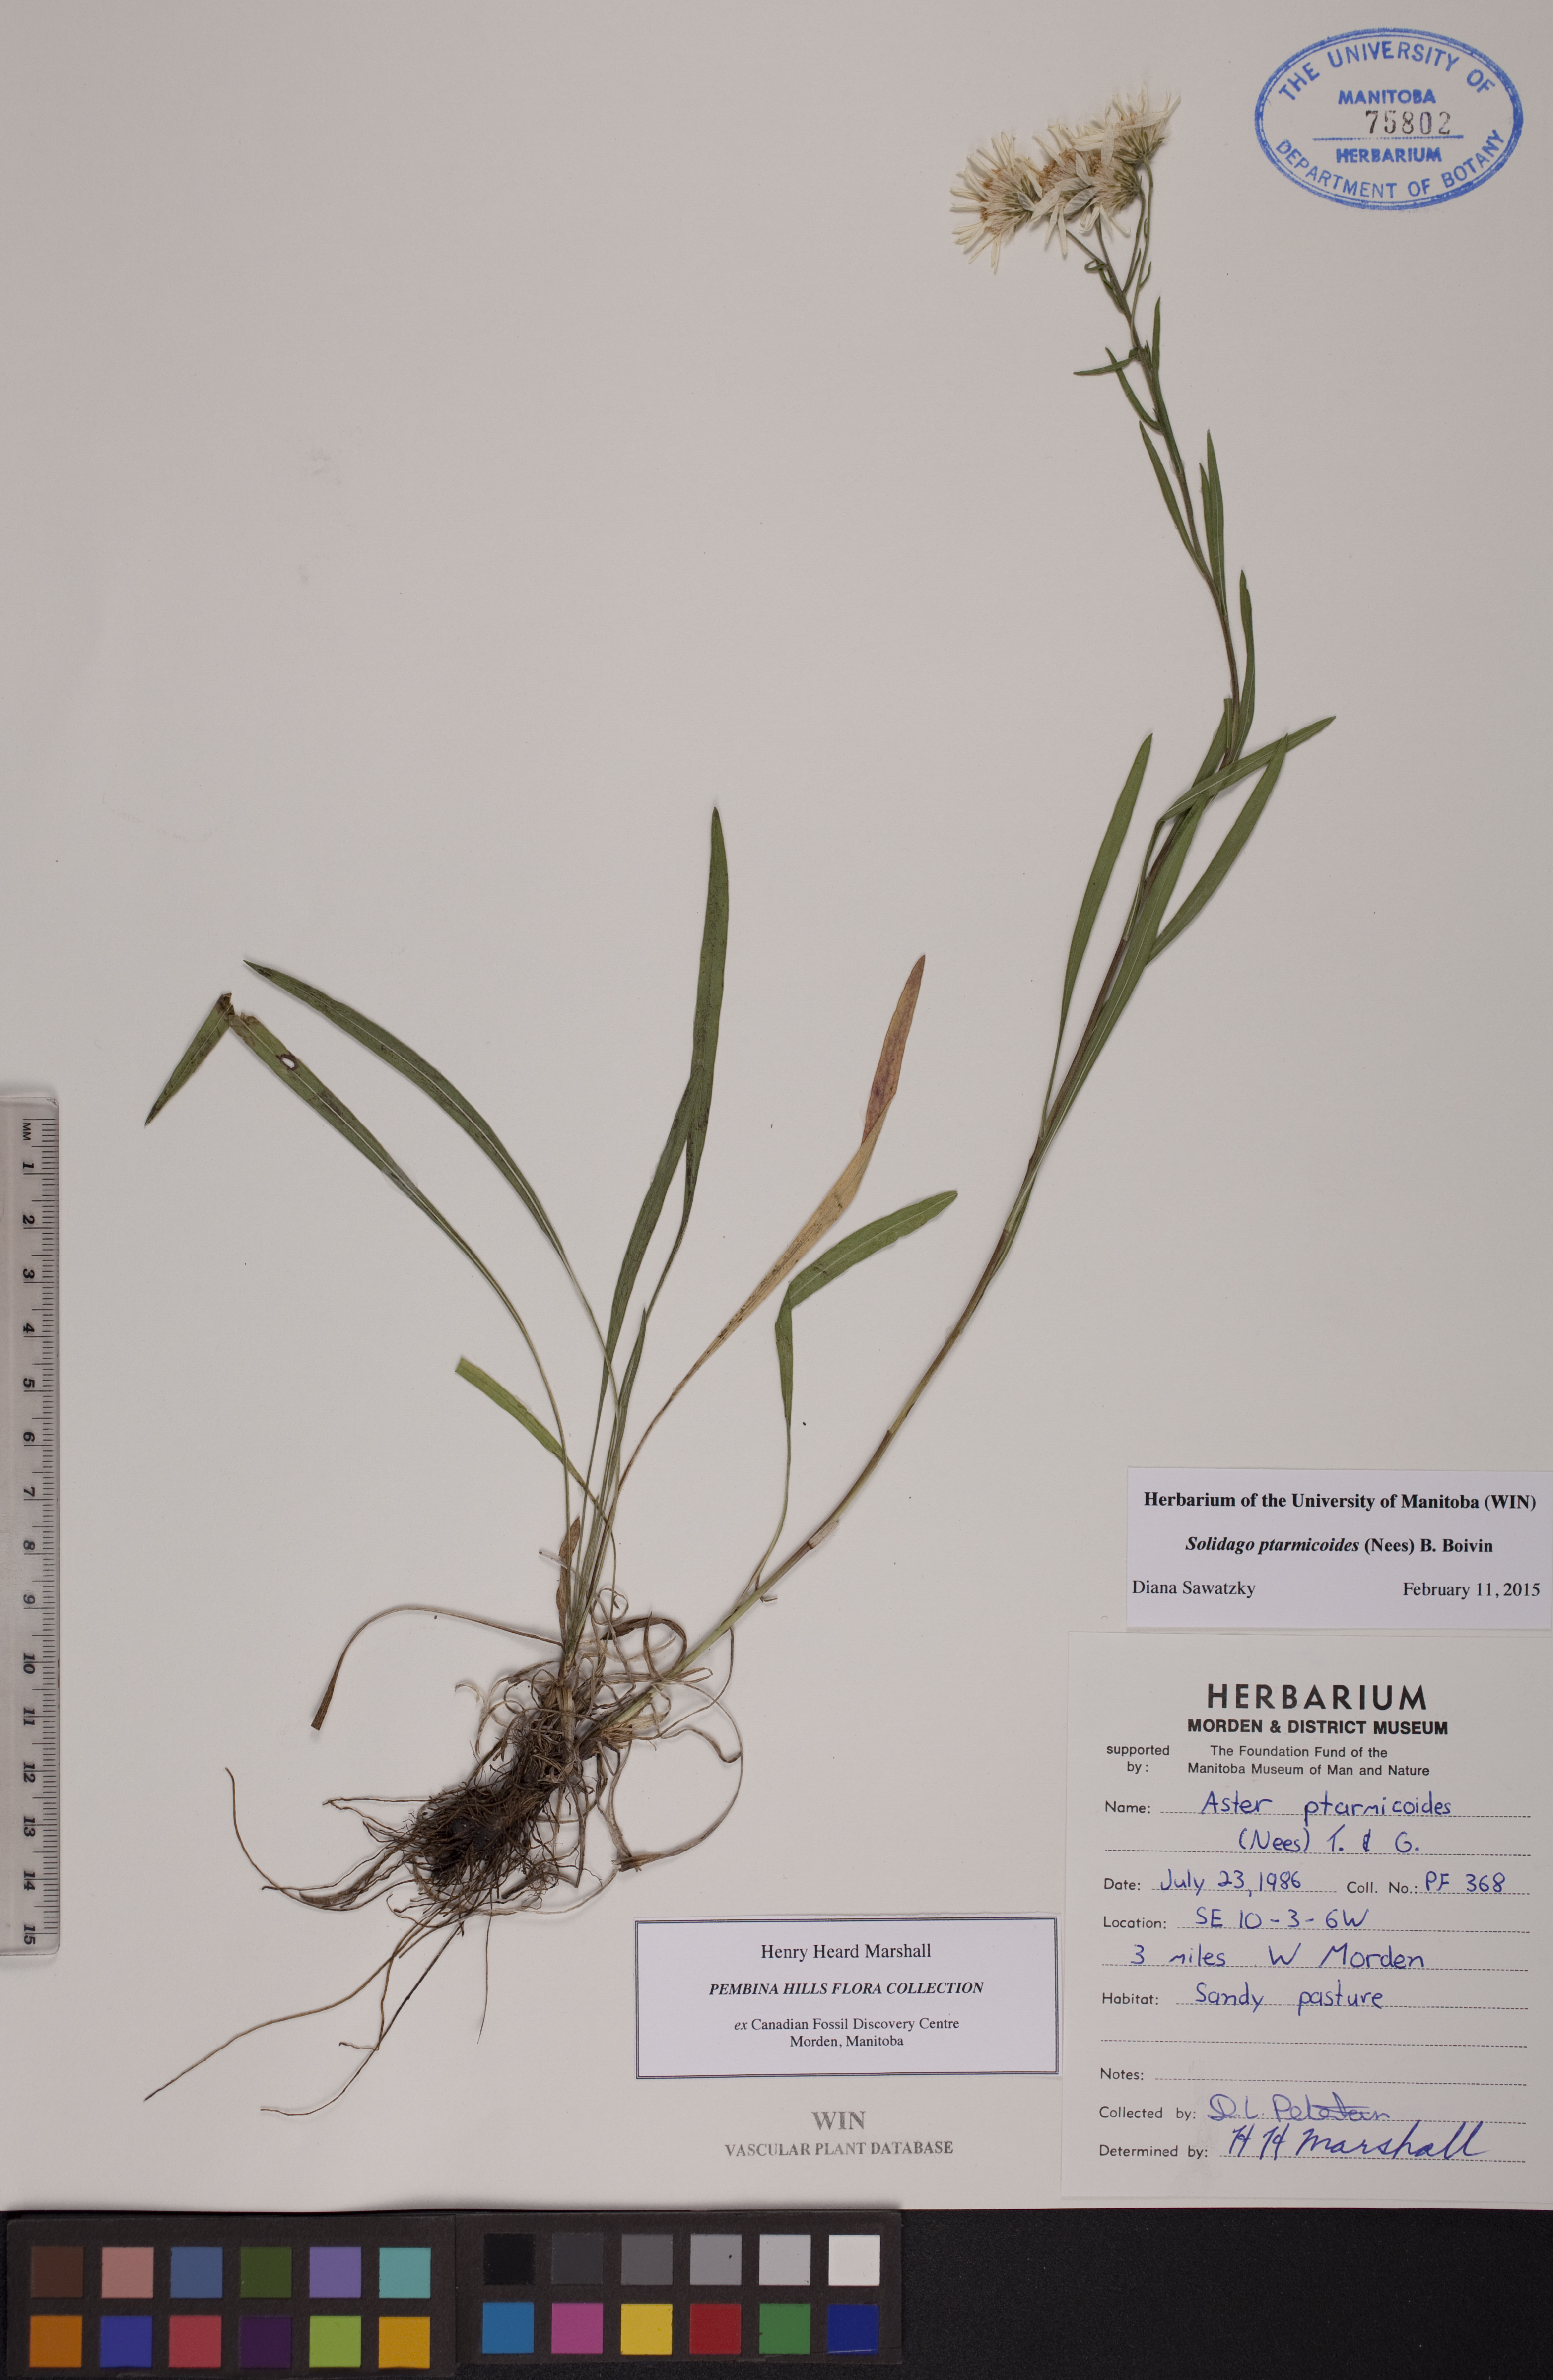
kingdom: Plantae
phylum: Tracheophyta
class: Magnoliopsida
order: Asterales
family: Asteraceae
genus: Solidago
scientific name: Solidago ptarmicoides
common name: White flat-top goldenrod
